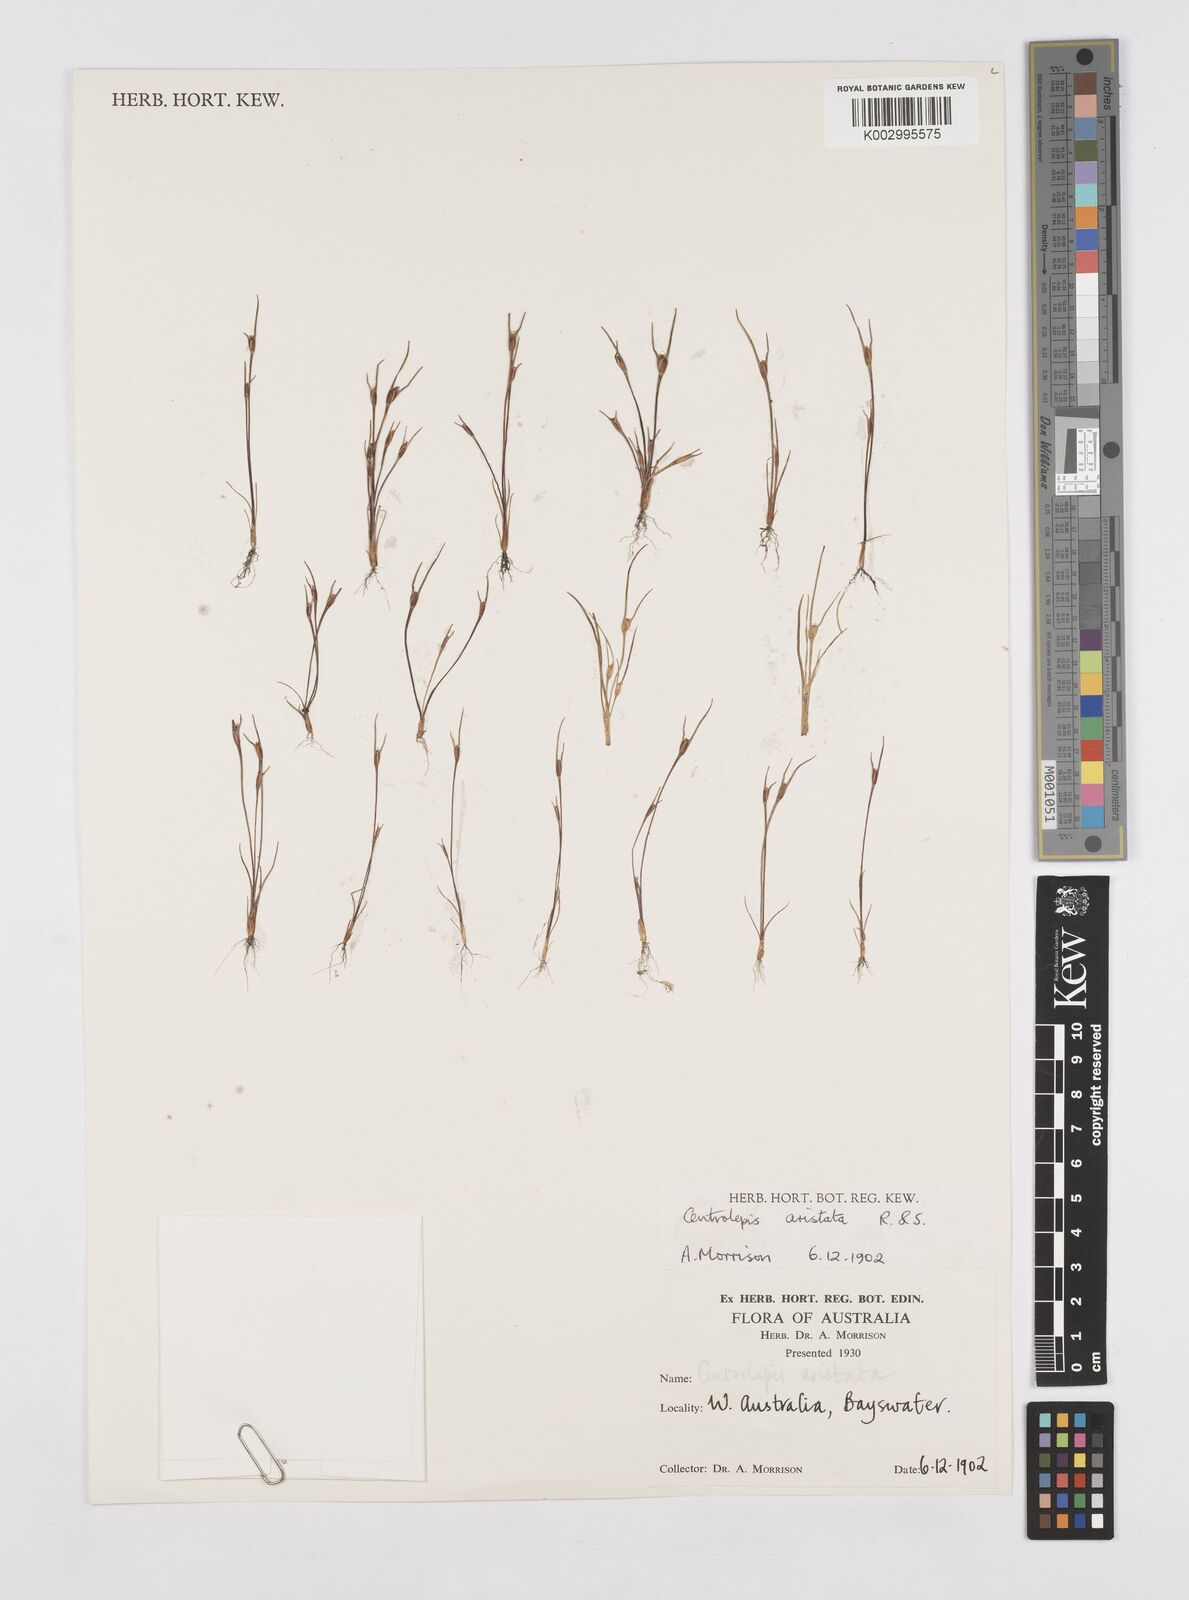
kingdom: Plantae
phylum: Tracheophyta
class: Liliopsida
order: Poales
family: Restionaceae
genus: Centrolepis
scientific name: Centrolepis aristata
